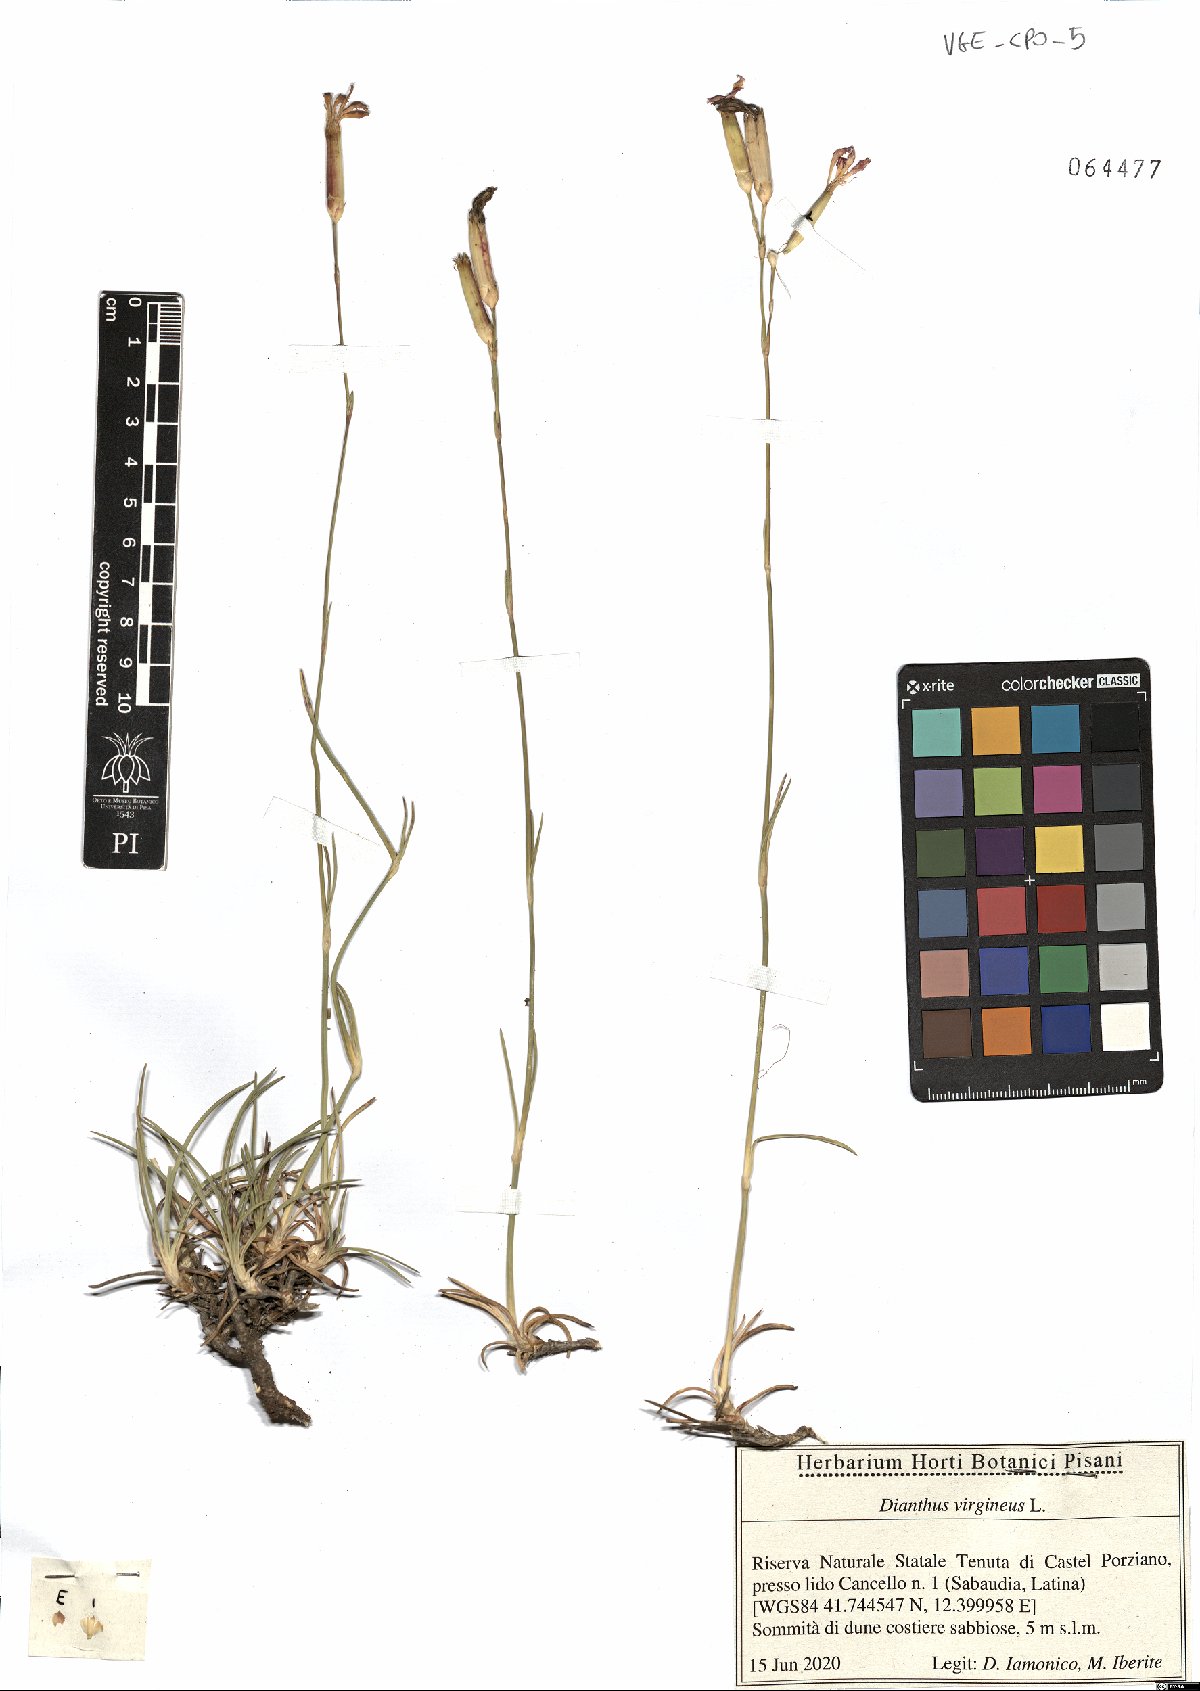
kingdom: Plantae
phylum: Tracheophyta
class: Magnoliopsida
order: Caryophyllales
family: Caryophyllaceae
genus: Dianthus
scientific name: Dianthus virgineus
